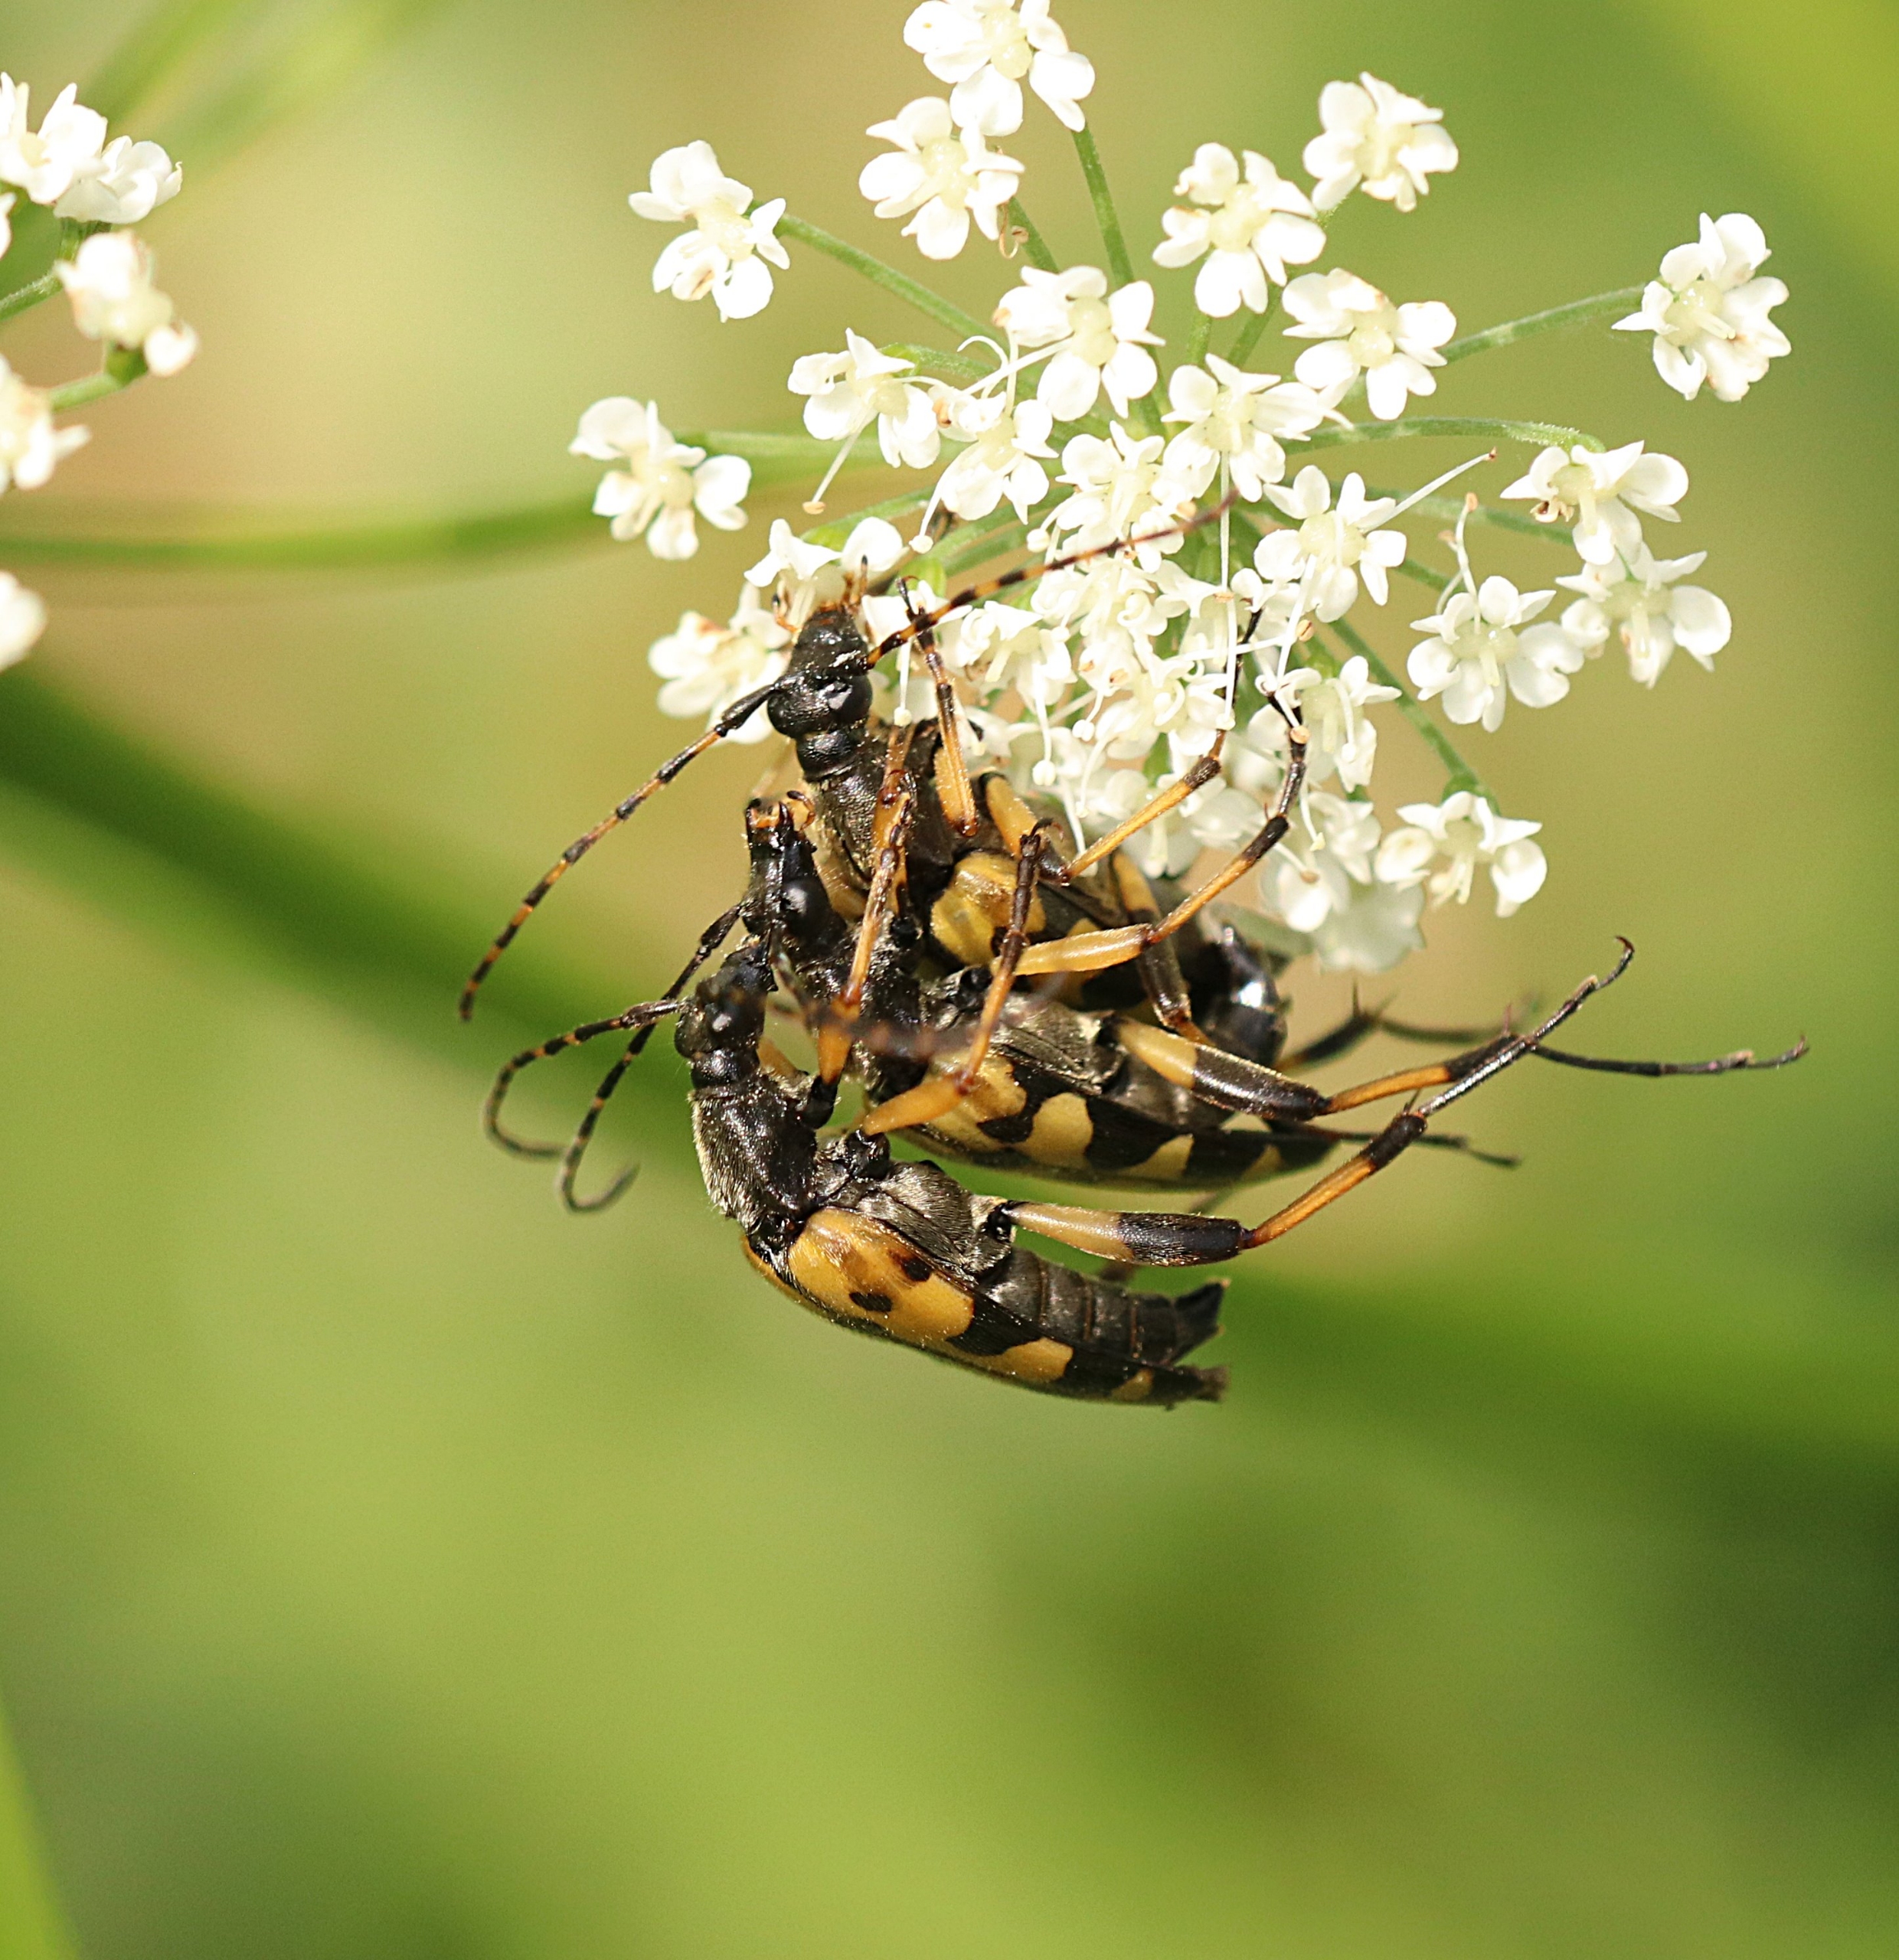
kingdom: Animalia
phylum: Arthropoda
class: Insecta
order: Coleoptera
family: Cerambycidae
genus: Rutpela
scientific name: Rutpela maculata
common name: Sydlig blomsterbuk
